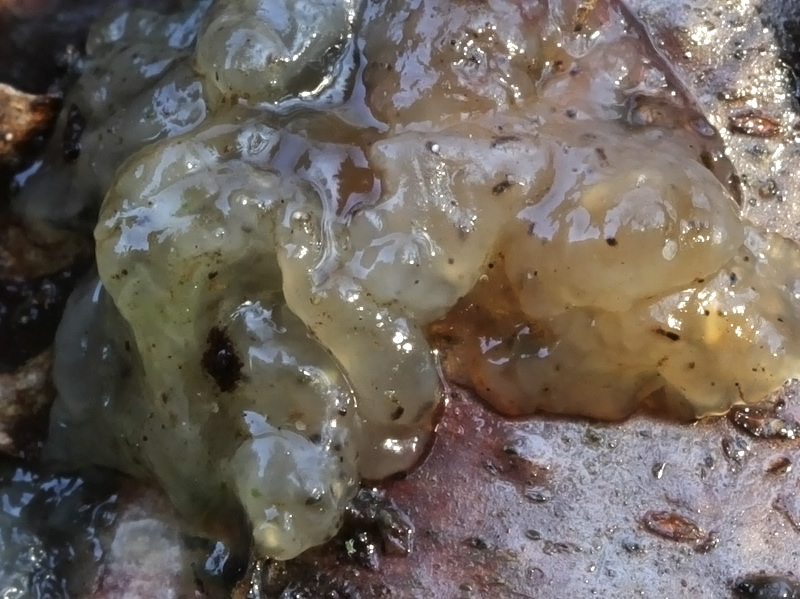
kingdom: Fungi
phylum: Basidiomycota
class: Agaricomycetes
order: Auriculariales
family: Hyaloriaceae
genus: Myxarium
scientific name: Myxarium nucleatum
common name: klar bævretop
